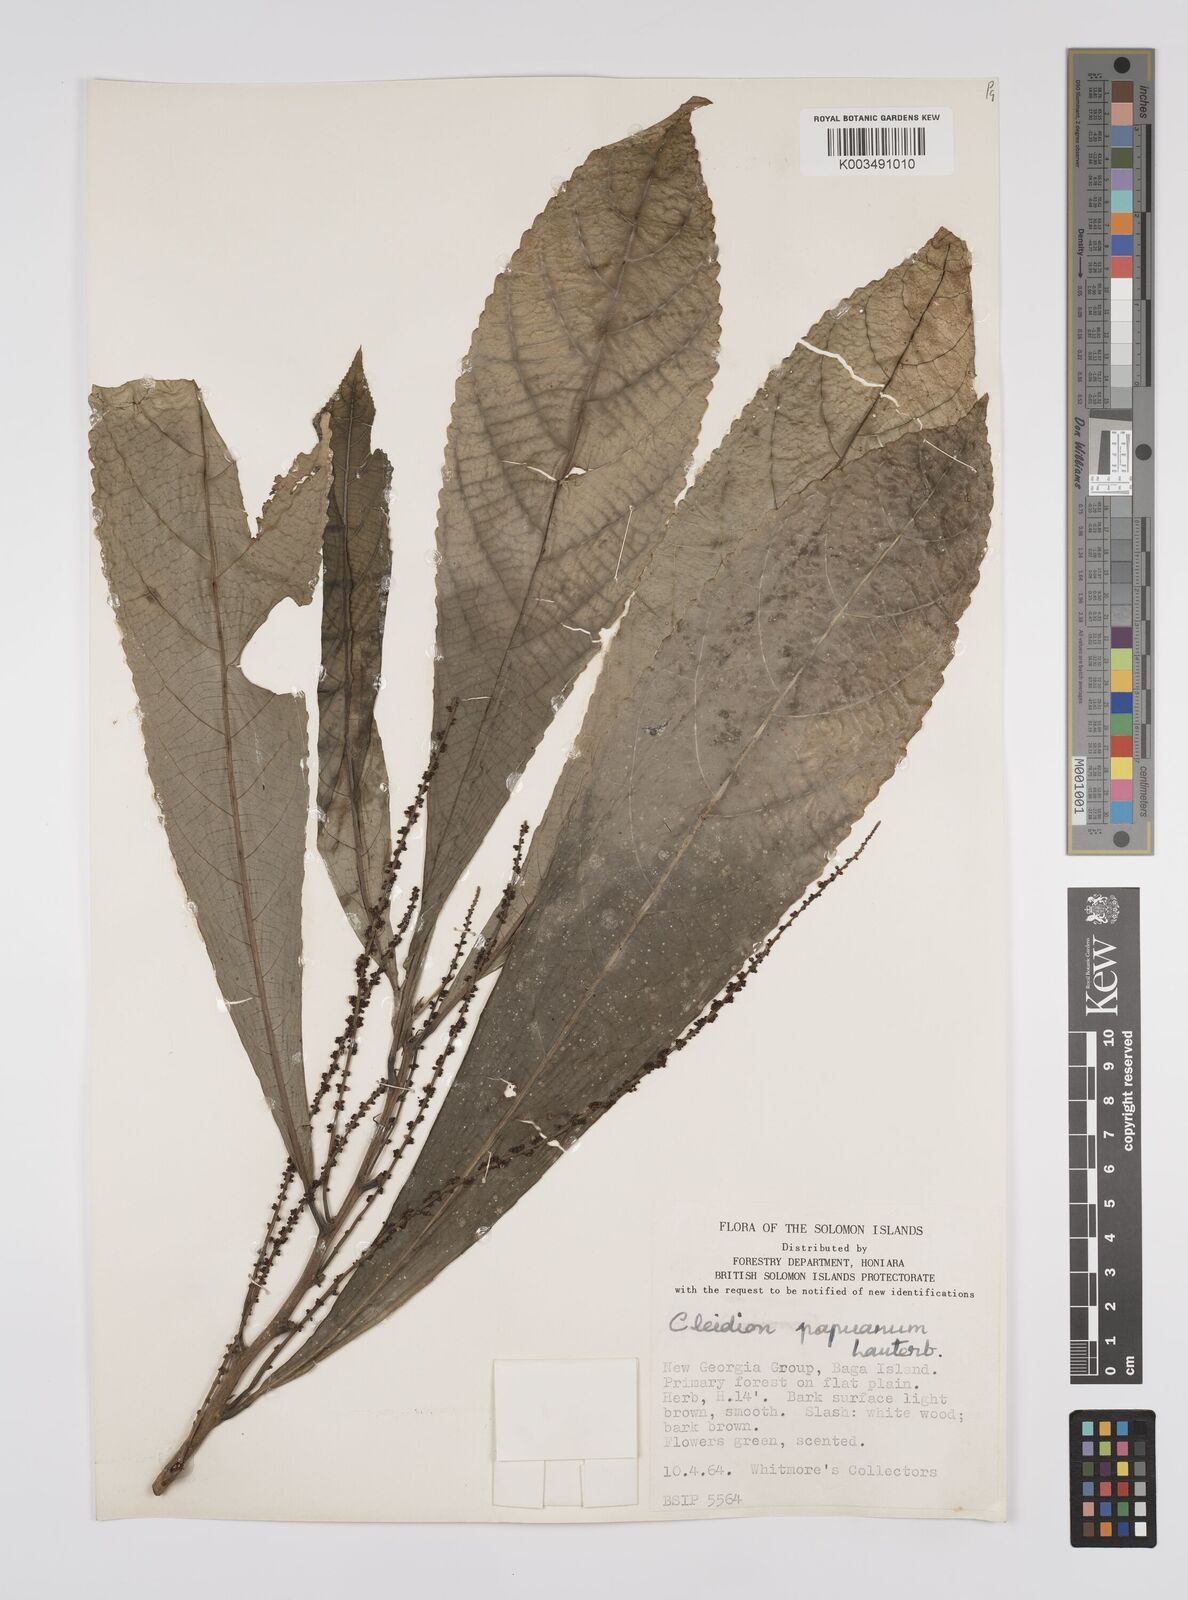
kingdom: Plantae
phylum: Tracheophyta
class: Magnoliopsida
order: Malpighiales
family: Euphorbiaceae
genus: Cleidion
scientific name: Cleidion papuanum
